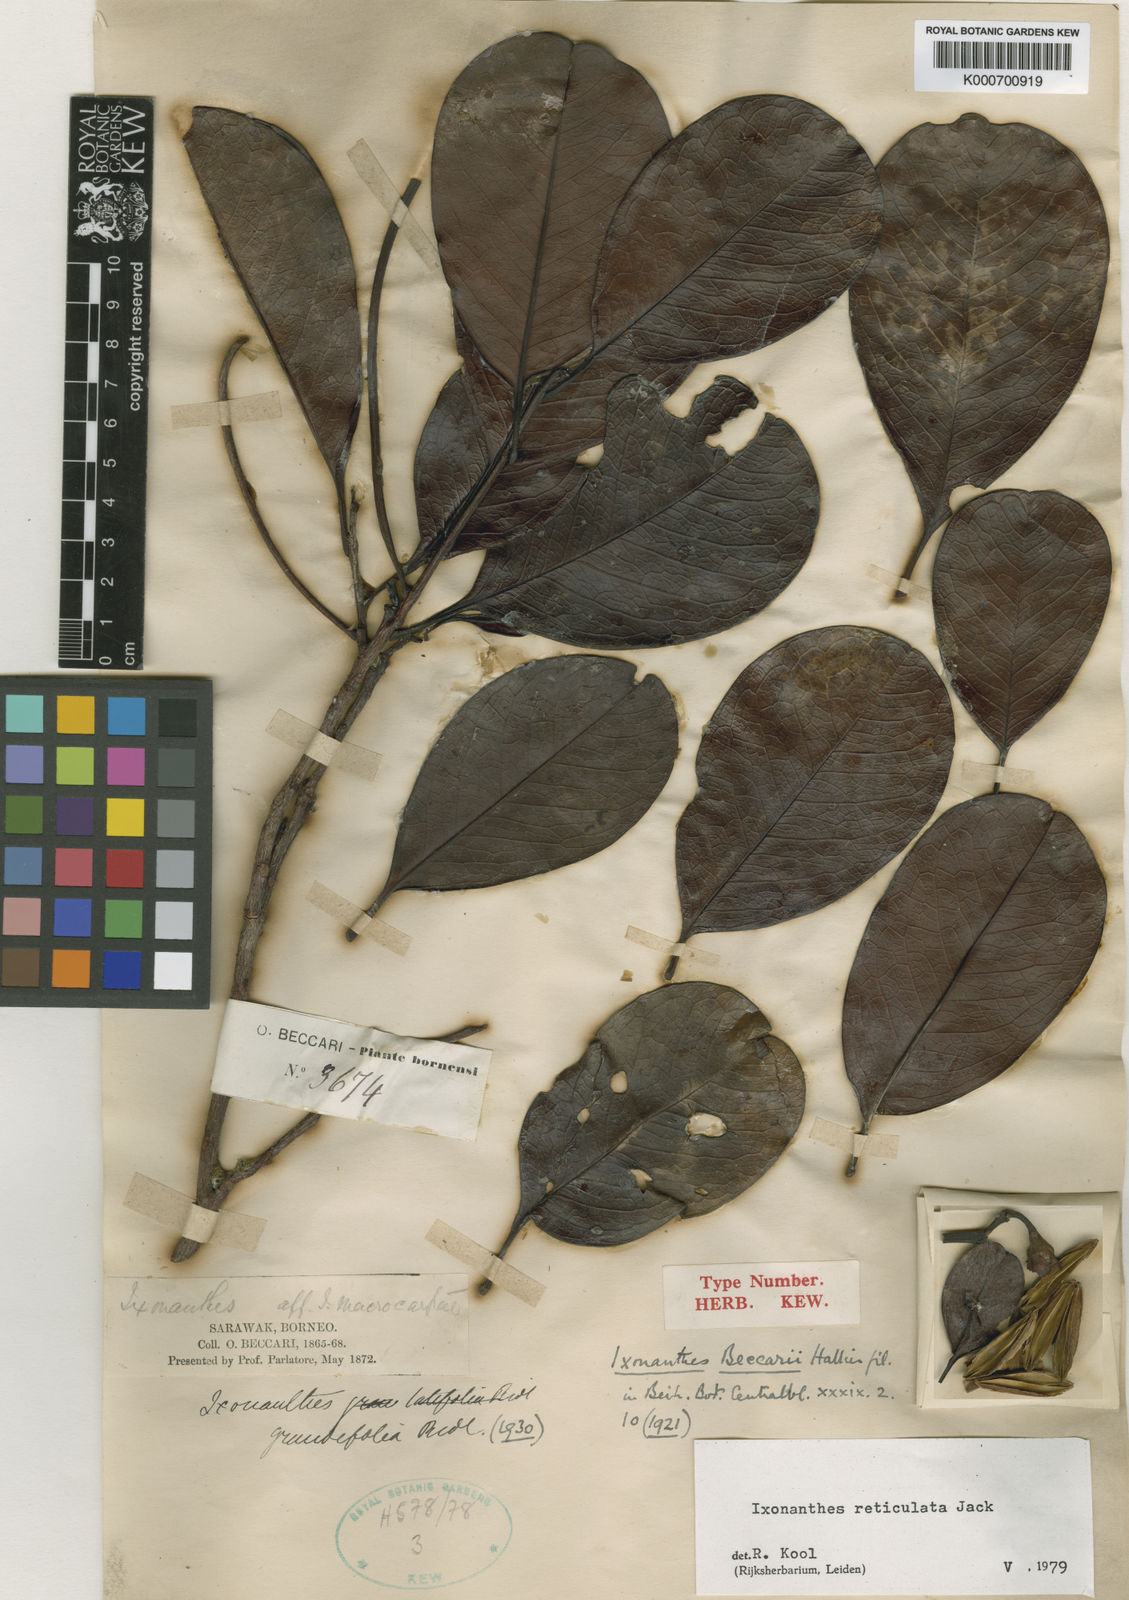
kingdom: Plantae
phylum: Tracheophyta
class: Magnoliopsida
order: Malpighiales
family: Ixonanthaceae
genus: Ixonanthes
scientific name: Ixonanthes reticulata
